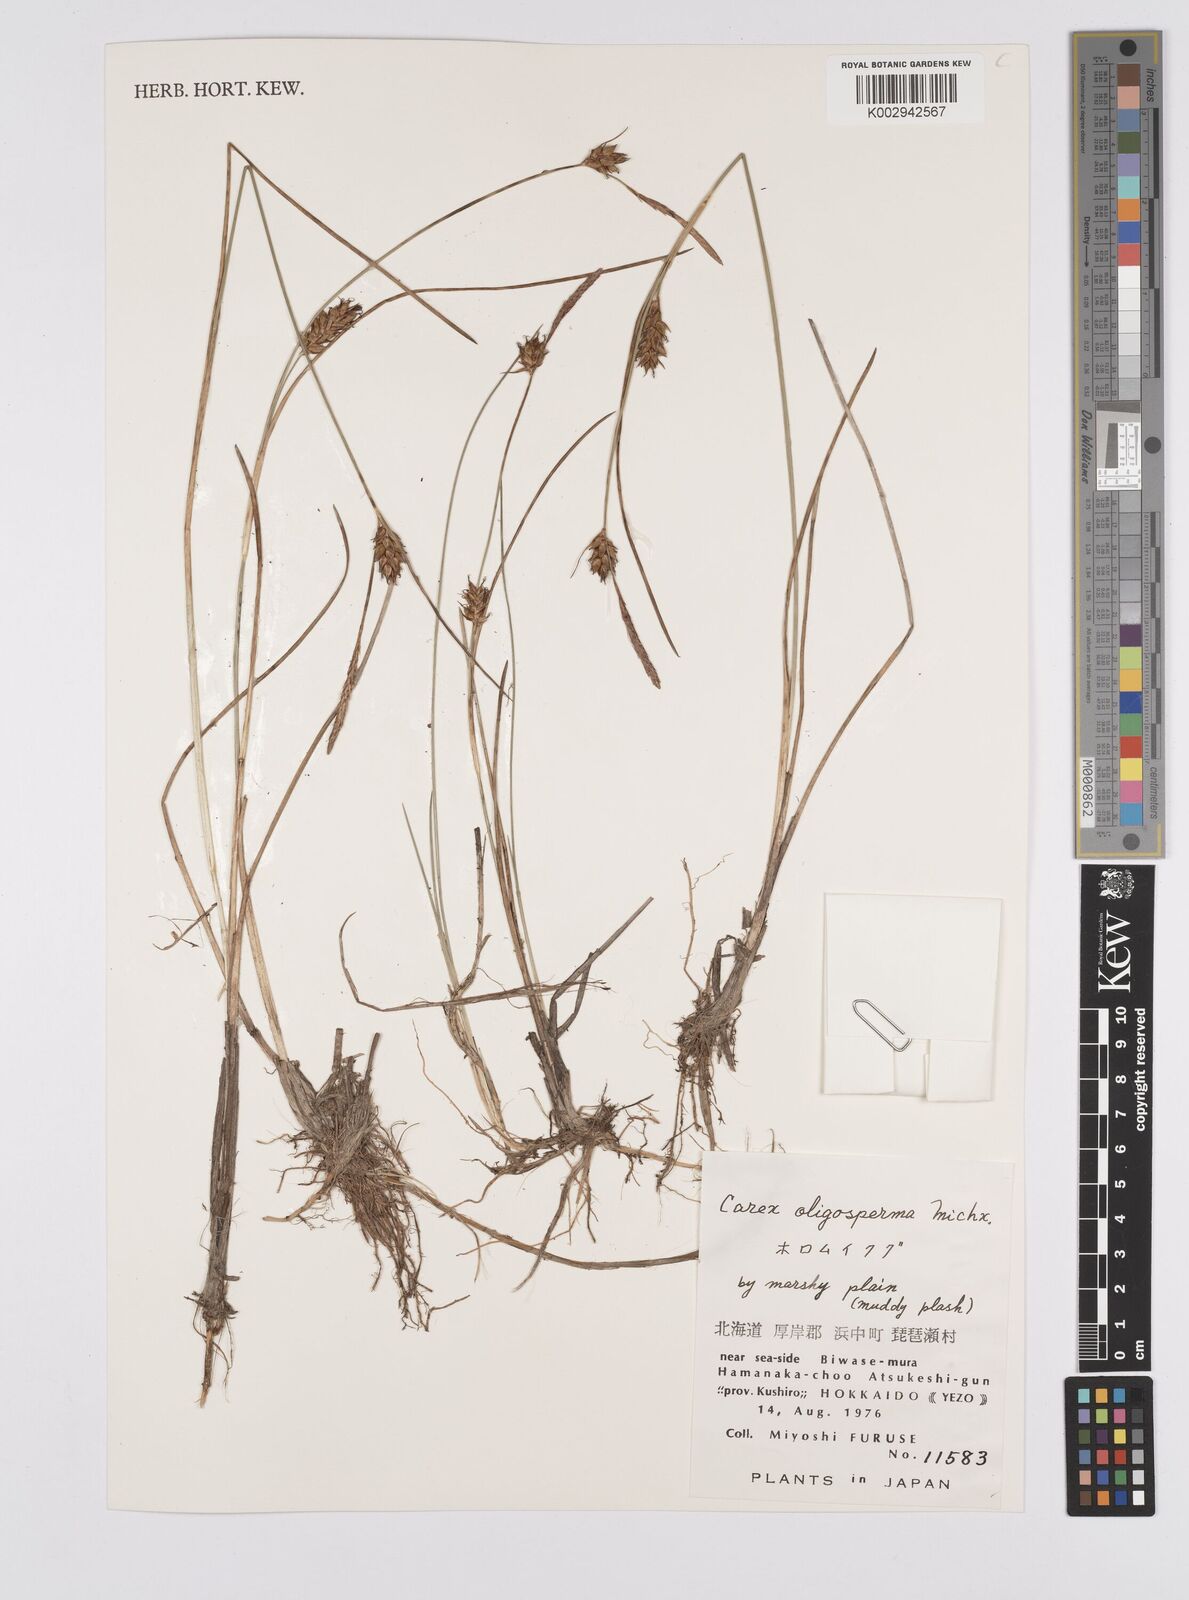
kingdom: Plantae
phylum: Tracheophyta
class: Liliopsida
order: Poales
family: Cyperaceae
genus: Carex
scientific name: Carex oligosperma
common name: Few-seed sedge
